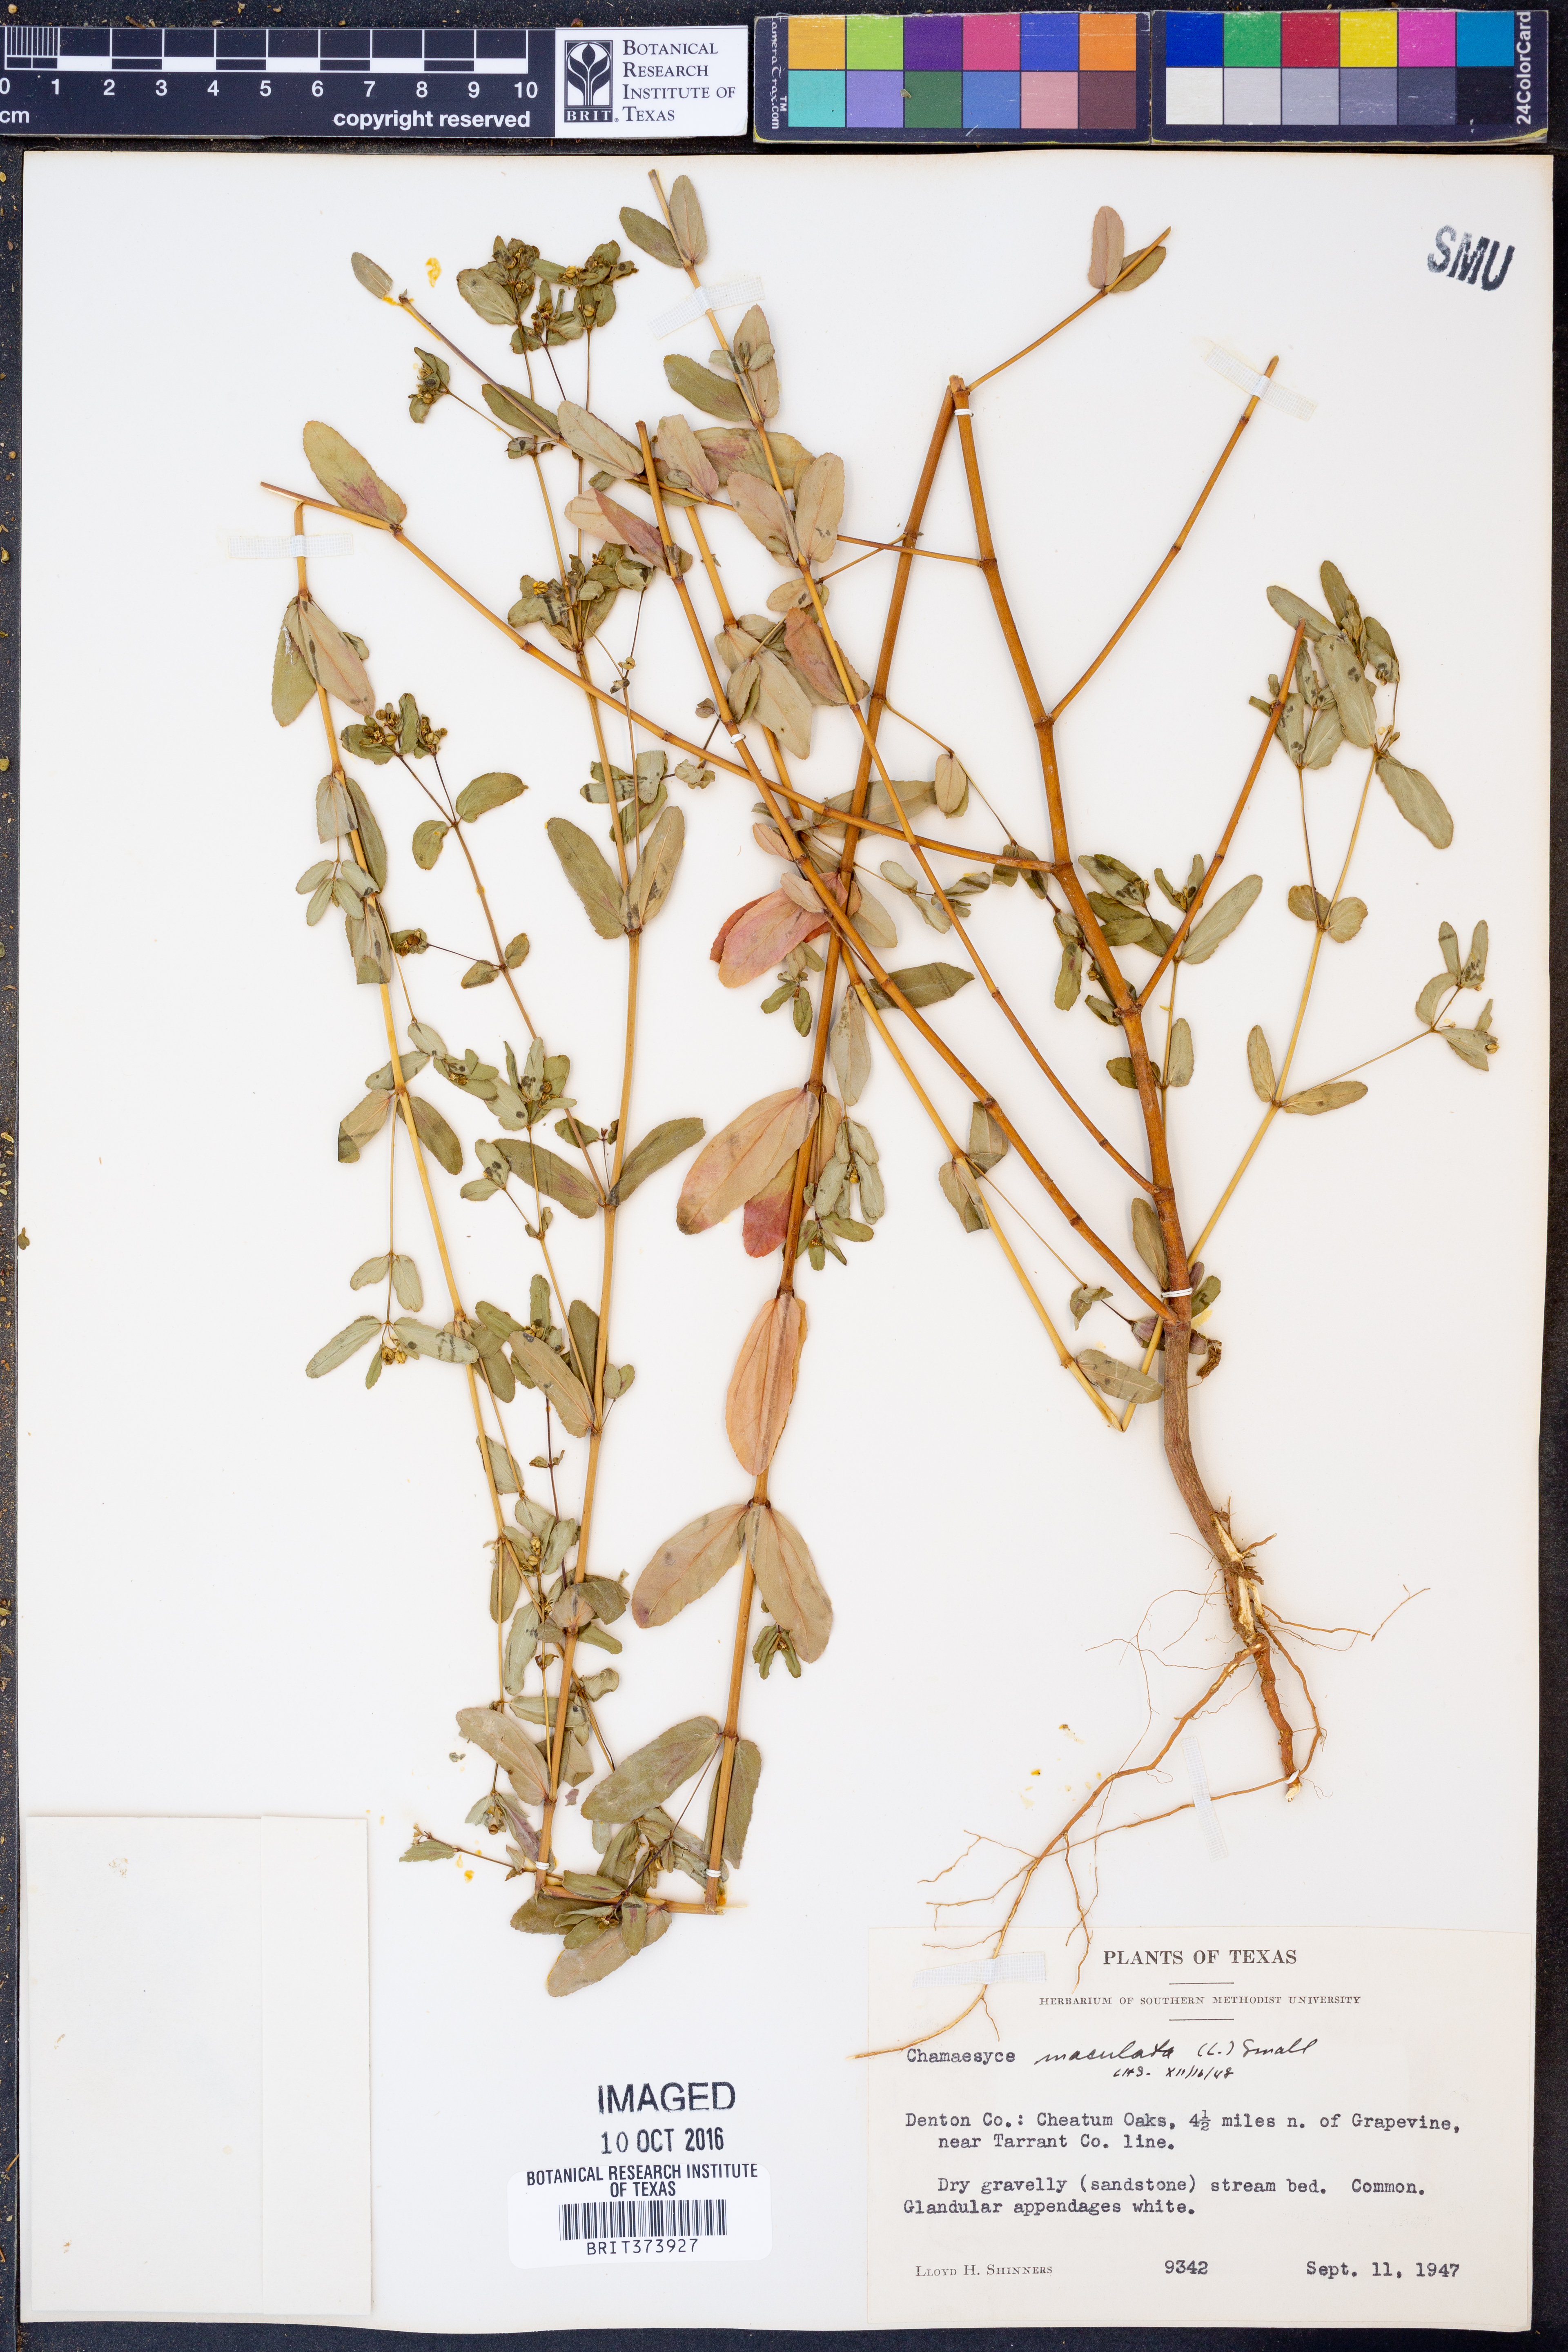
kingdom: Plantae
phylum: Tracheophyta
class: Magnoliopsida
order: Malpighiales
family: Euphorbiaceae
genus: Euphorbia
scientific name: Euphorbia maculata
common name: Spotted spurge
